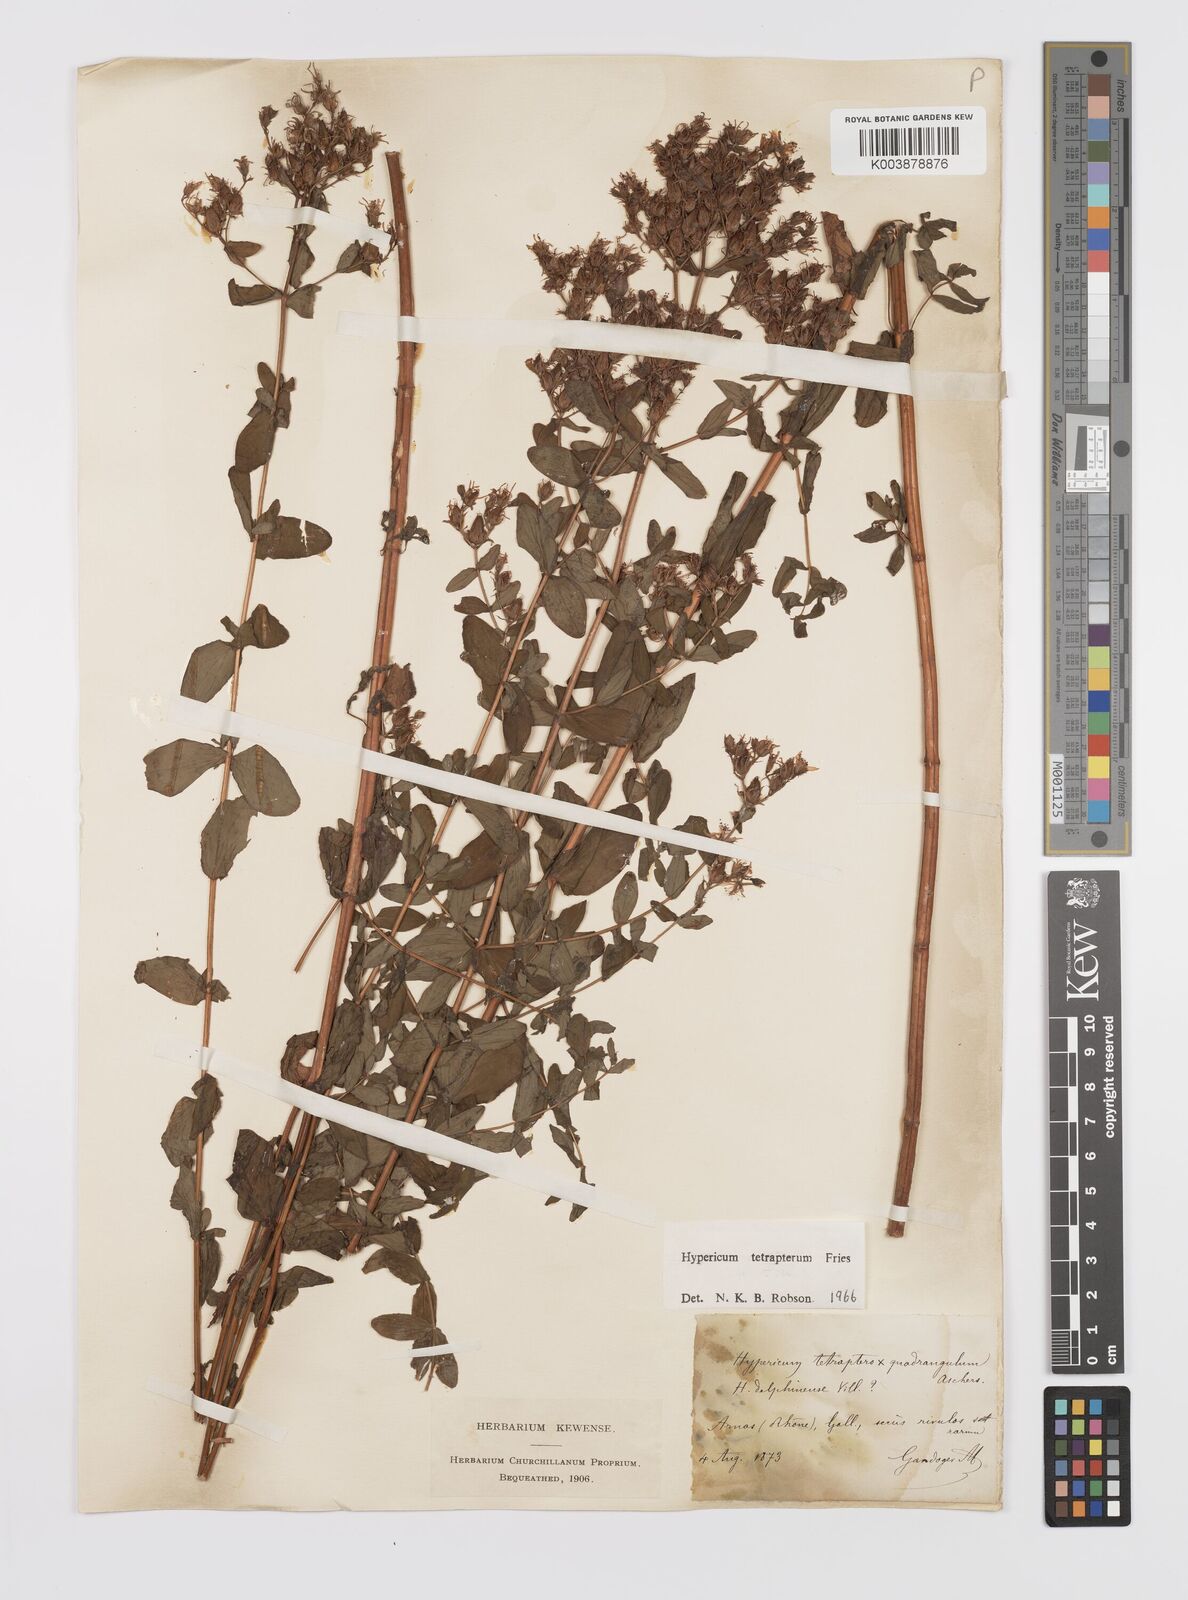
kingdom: Plantae
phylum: Tracheophyta
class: Magnoliopsida
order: Malpighiales
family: Hypericaceae
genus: Hypericum
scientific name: Hypericum tetrapterum
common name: Square-stalked st. john's-wort
